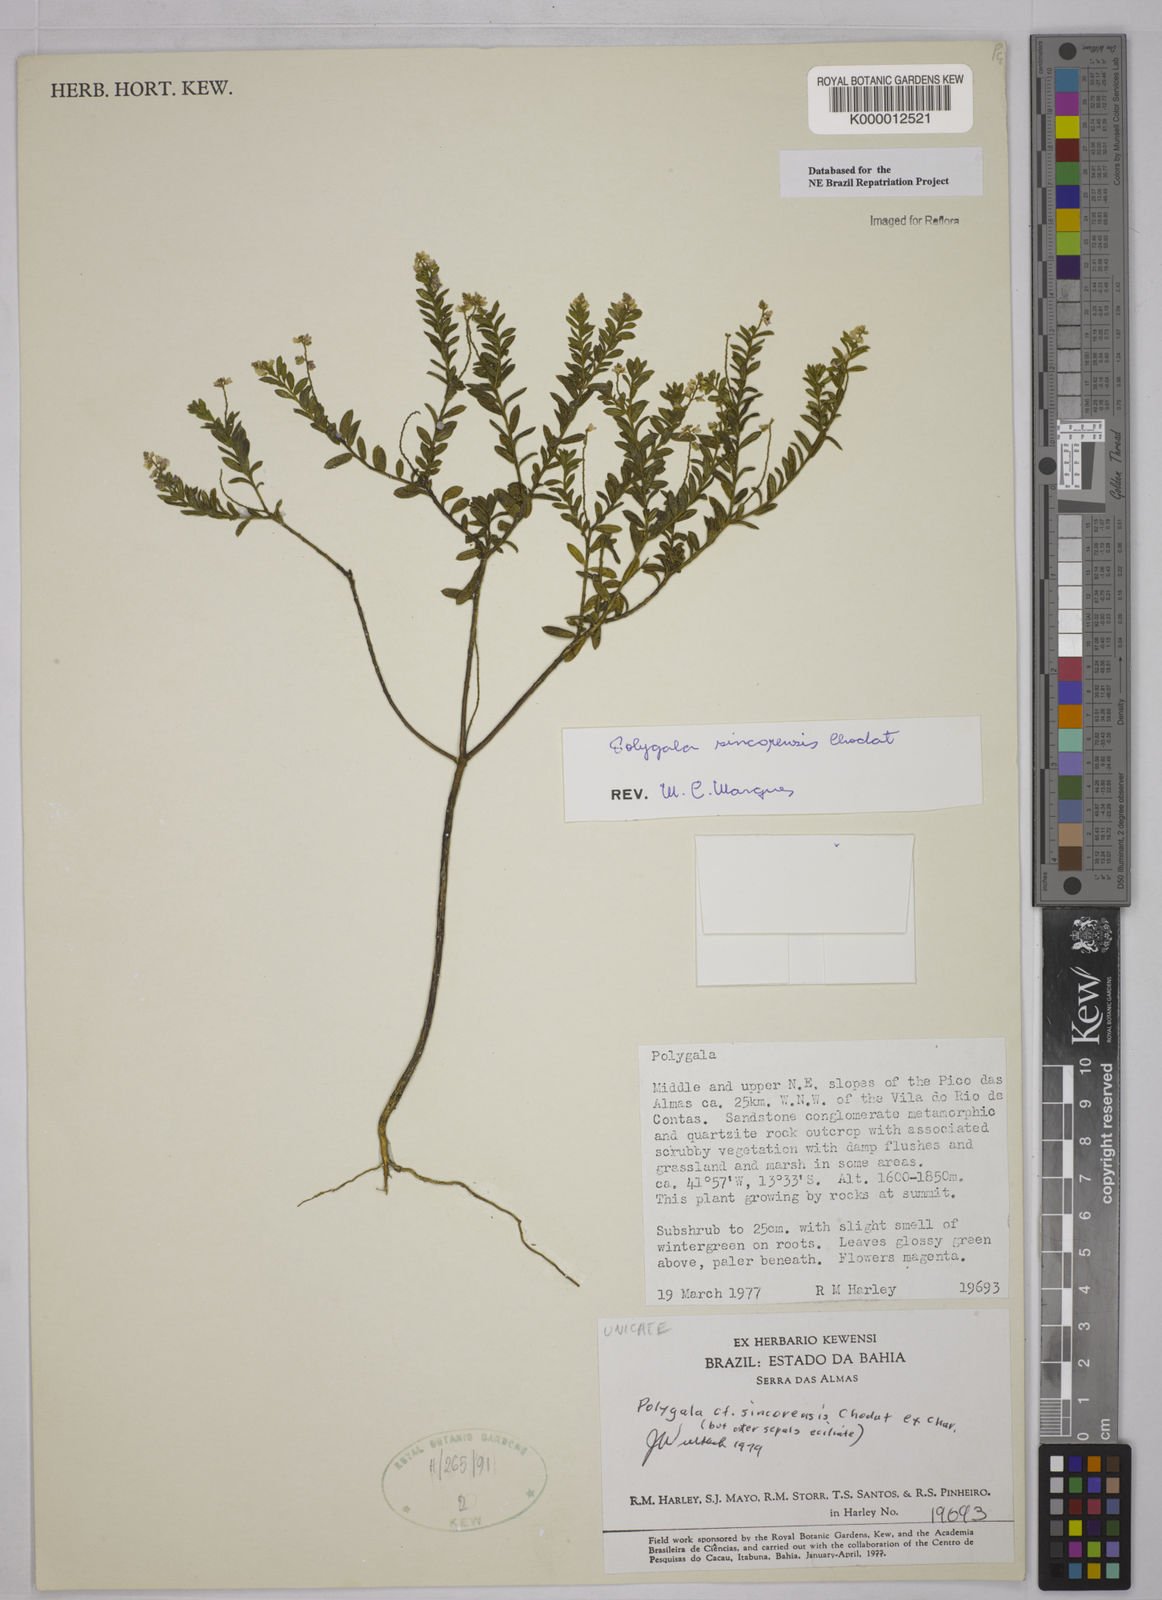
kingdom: Plantae
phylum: Tracheophyta
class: Magnoliopsida
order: Fabales
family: Polygalaceae
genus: Polygala
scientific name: Polygala sincorensis
